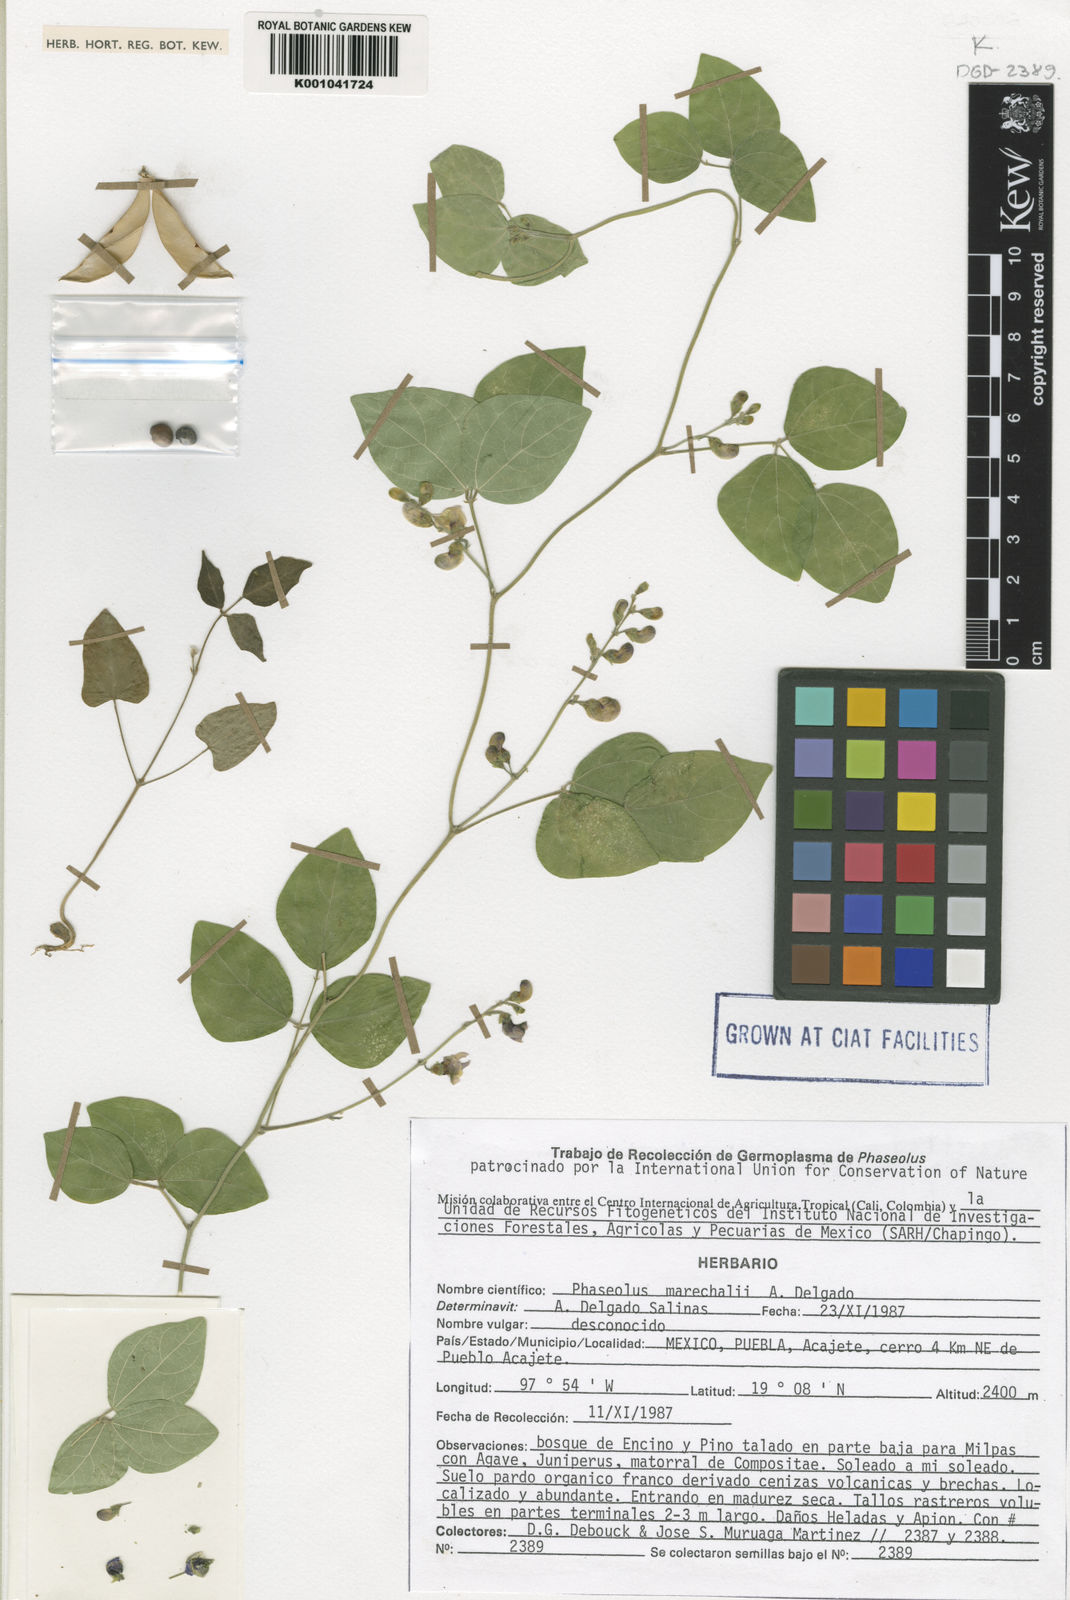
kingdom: Plantae
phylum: Tracheophyta
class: Magnoliopsida
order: Fabales
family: Fabaceae
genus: Phaseolus
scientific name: Phaseolus marechalii
